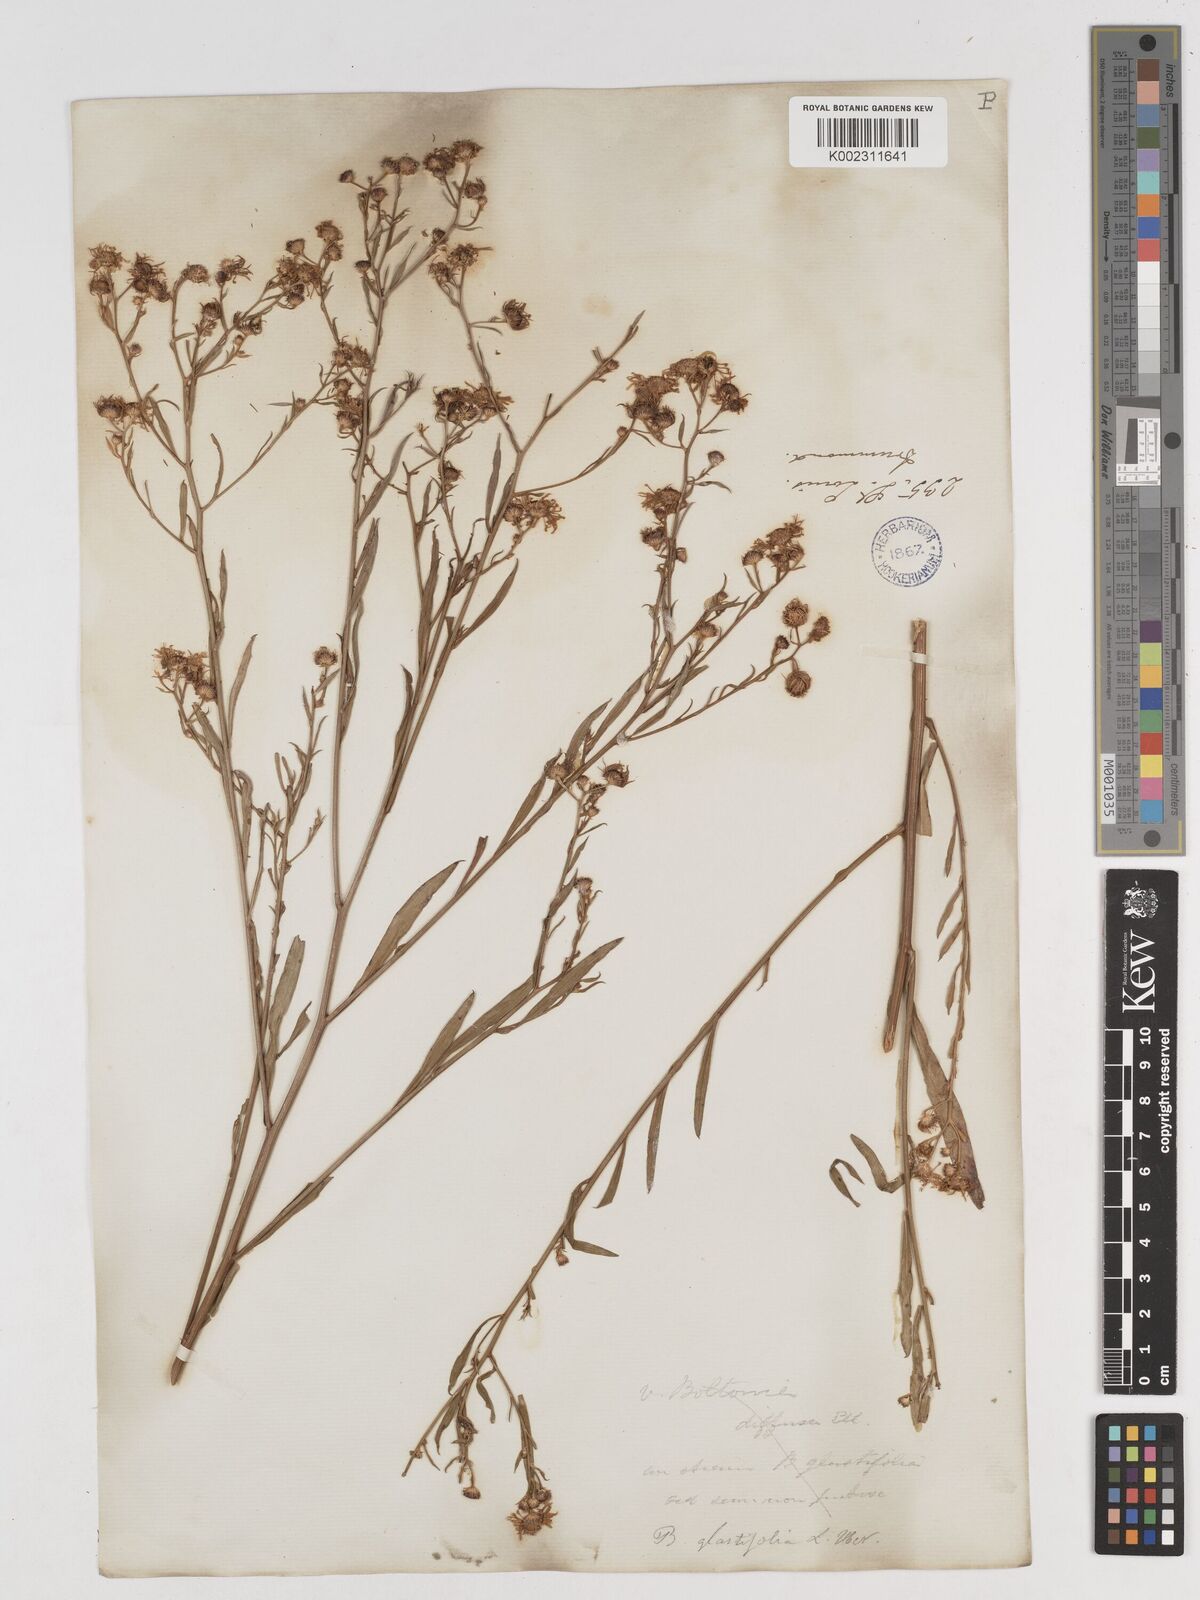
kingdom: Plantae
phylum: Tracheophyta
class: Magnoliopsida
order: Asterales
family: Asteraceae
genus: Boltonia
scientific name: Boltonia diffusa
